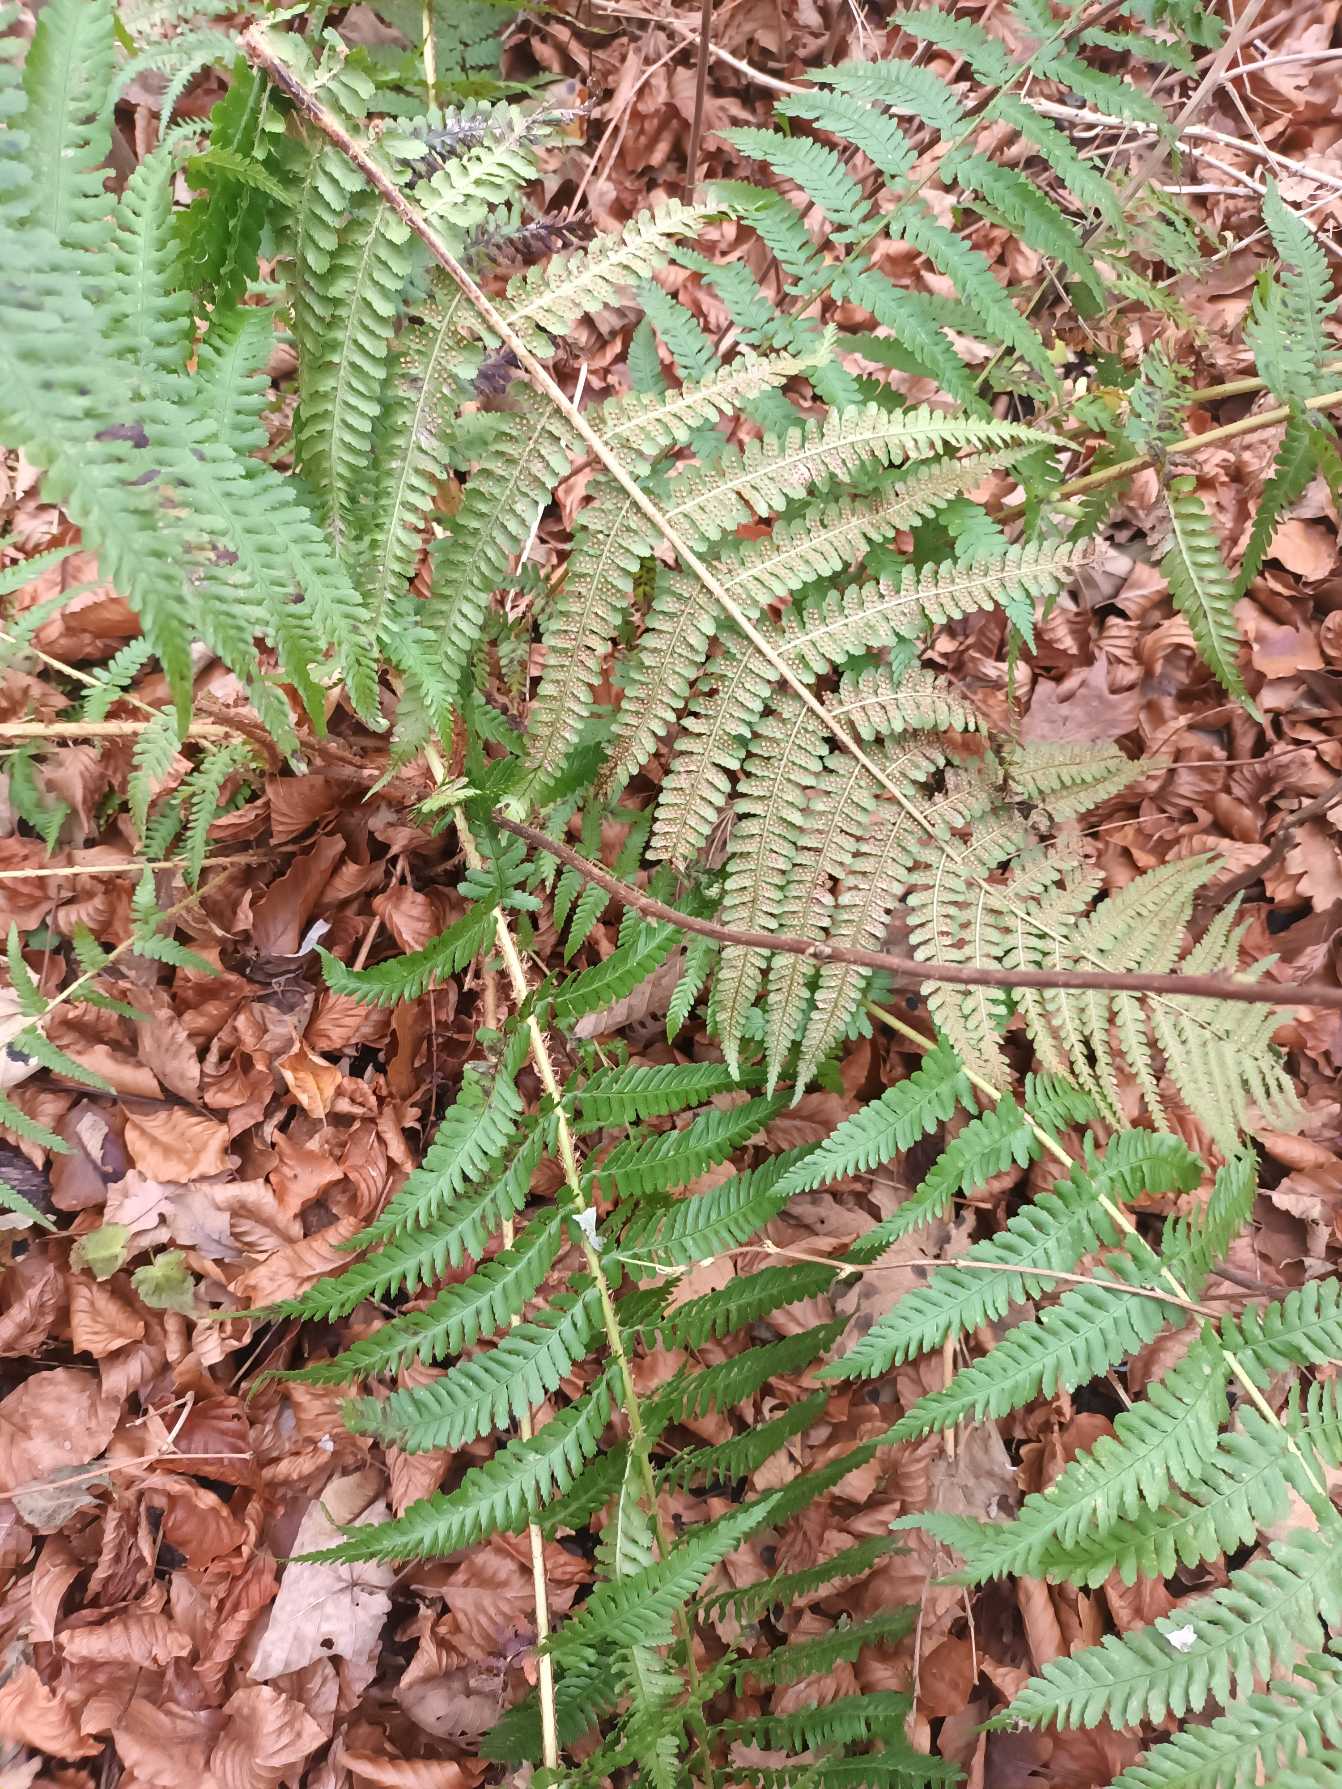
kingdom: Plantae
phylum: Tracheophyta
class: Polypodiopsida
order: Polypodiales
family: Dryopteridaceae
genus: Dryopteris
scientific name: Dryopteris filix-mas
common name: Almindelig mangeløv
